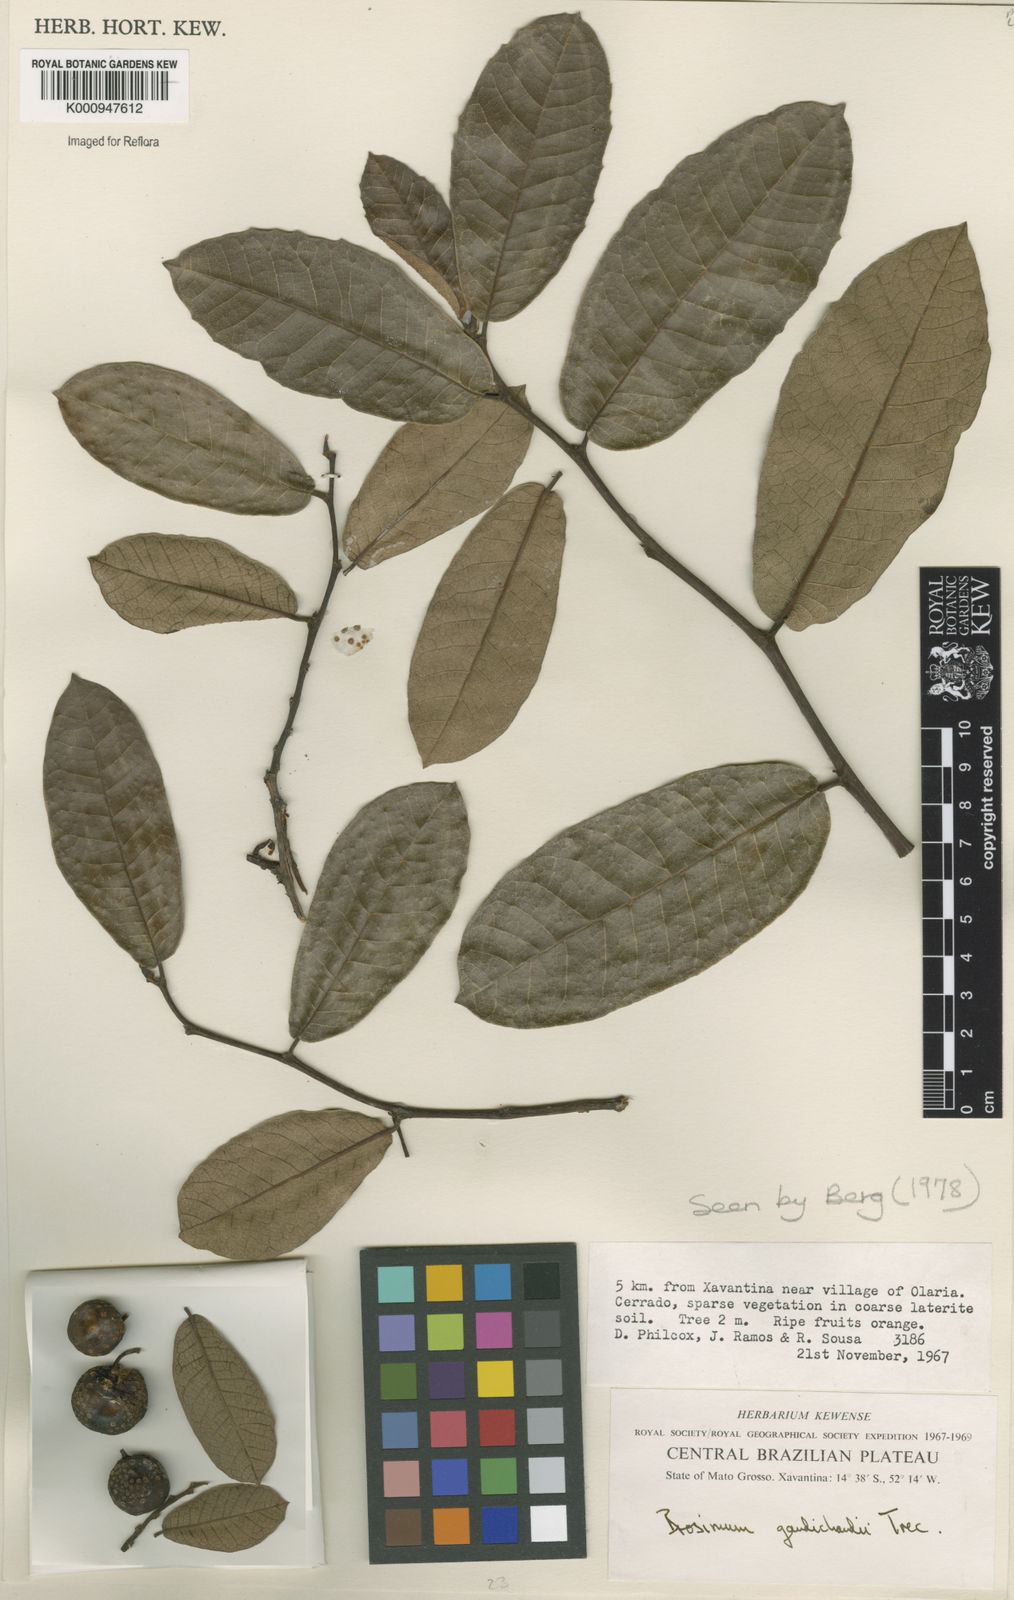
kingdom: Plantae
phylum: Tracheophyta
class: Magnoliopsida
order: Rosales
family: Moraceae
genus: Brosimum
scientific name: Brosimum
